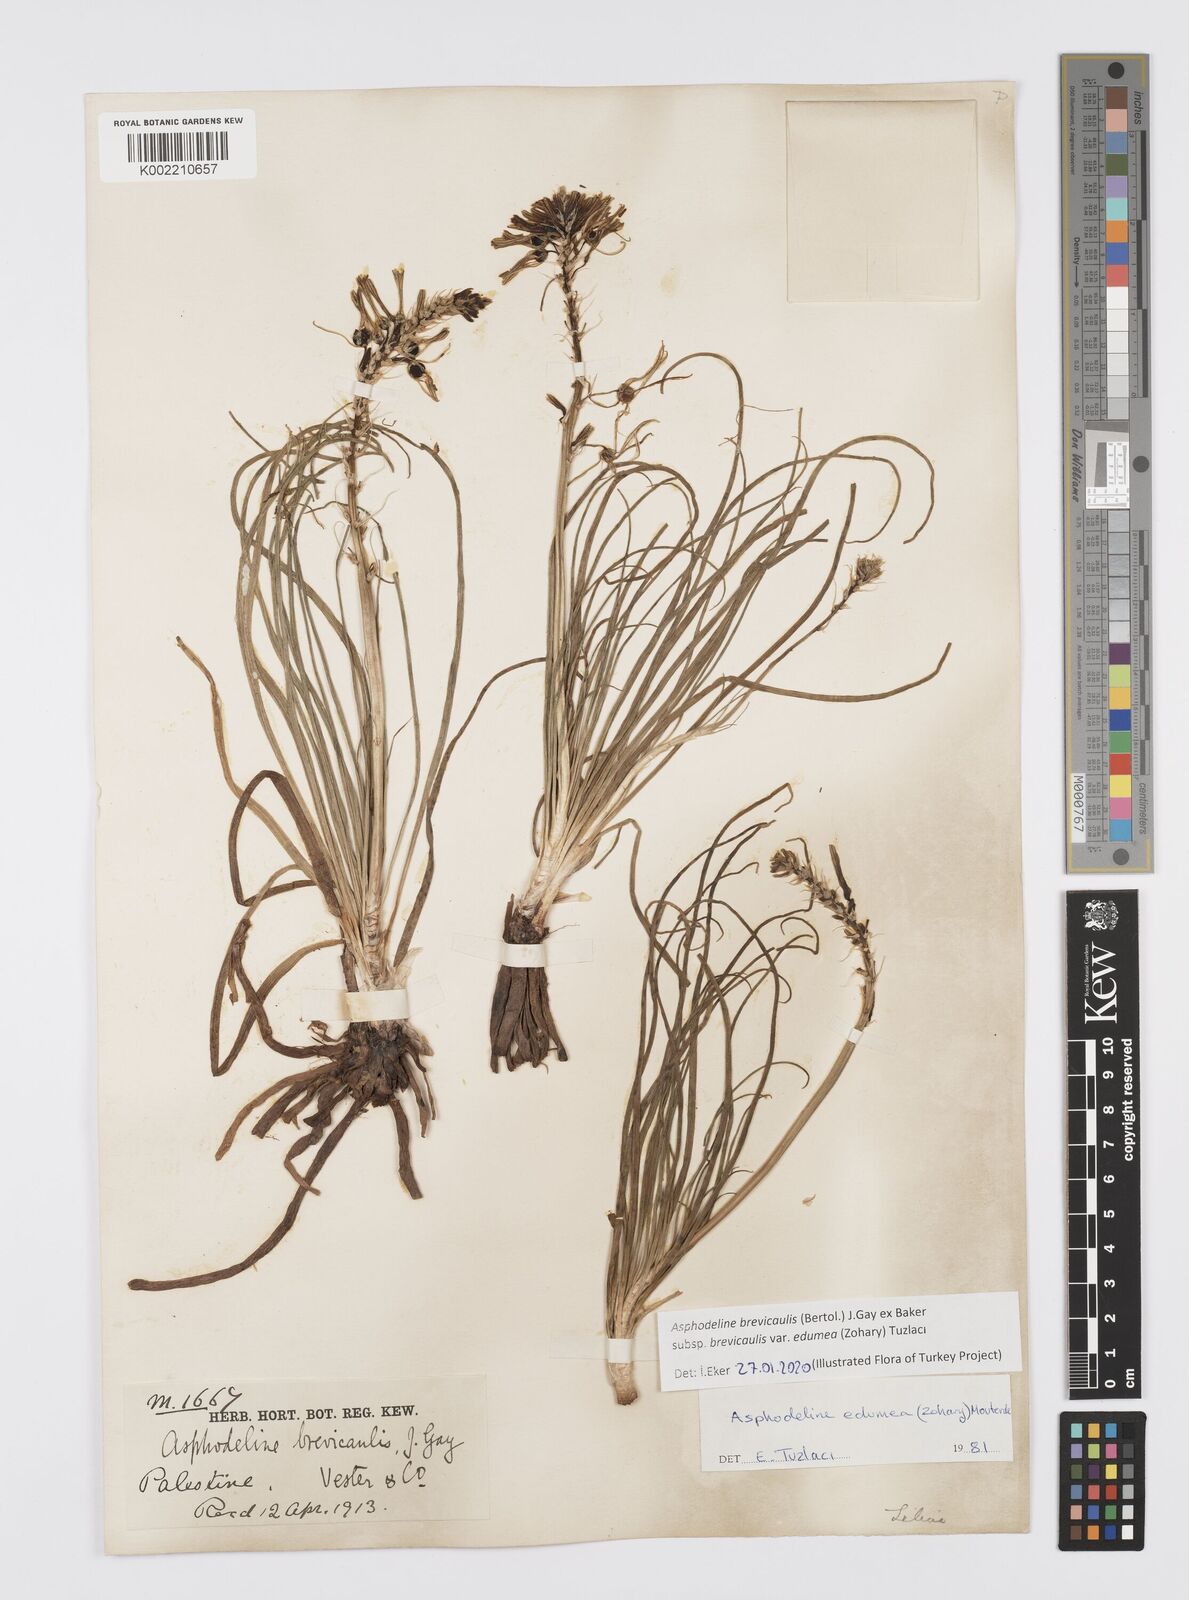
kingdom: Plantae
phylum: Tracheophyta
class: Liliopsida
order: Asparagales
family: Asphodelaceae
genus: Asphodeline
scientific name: Asphodeline brevicaulis
